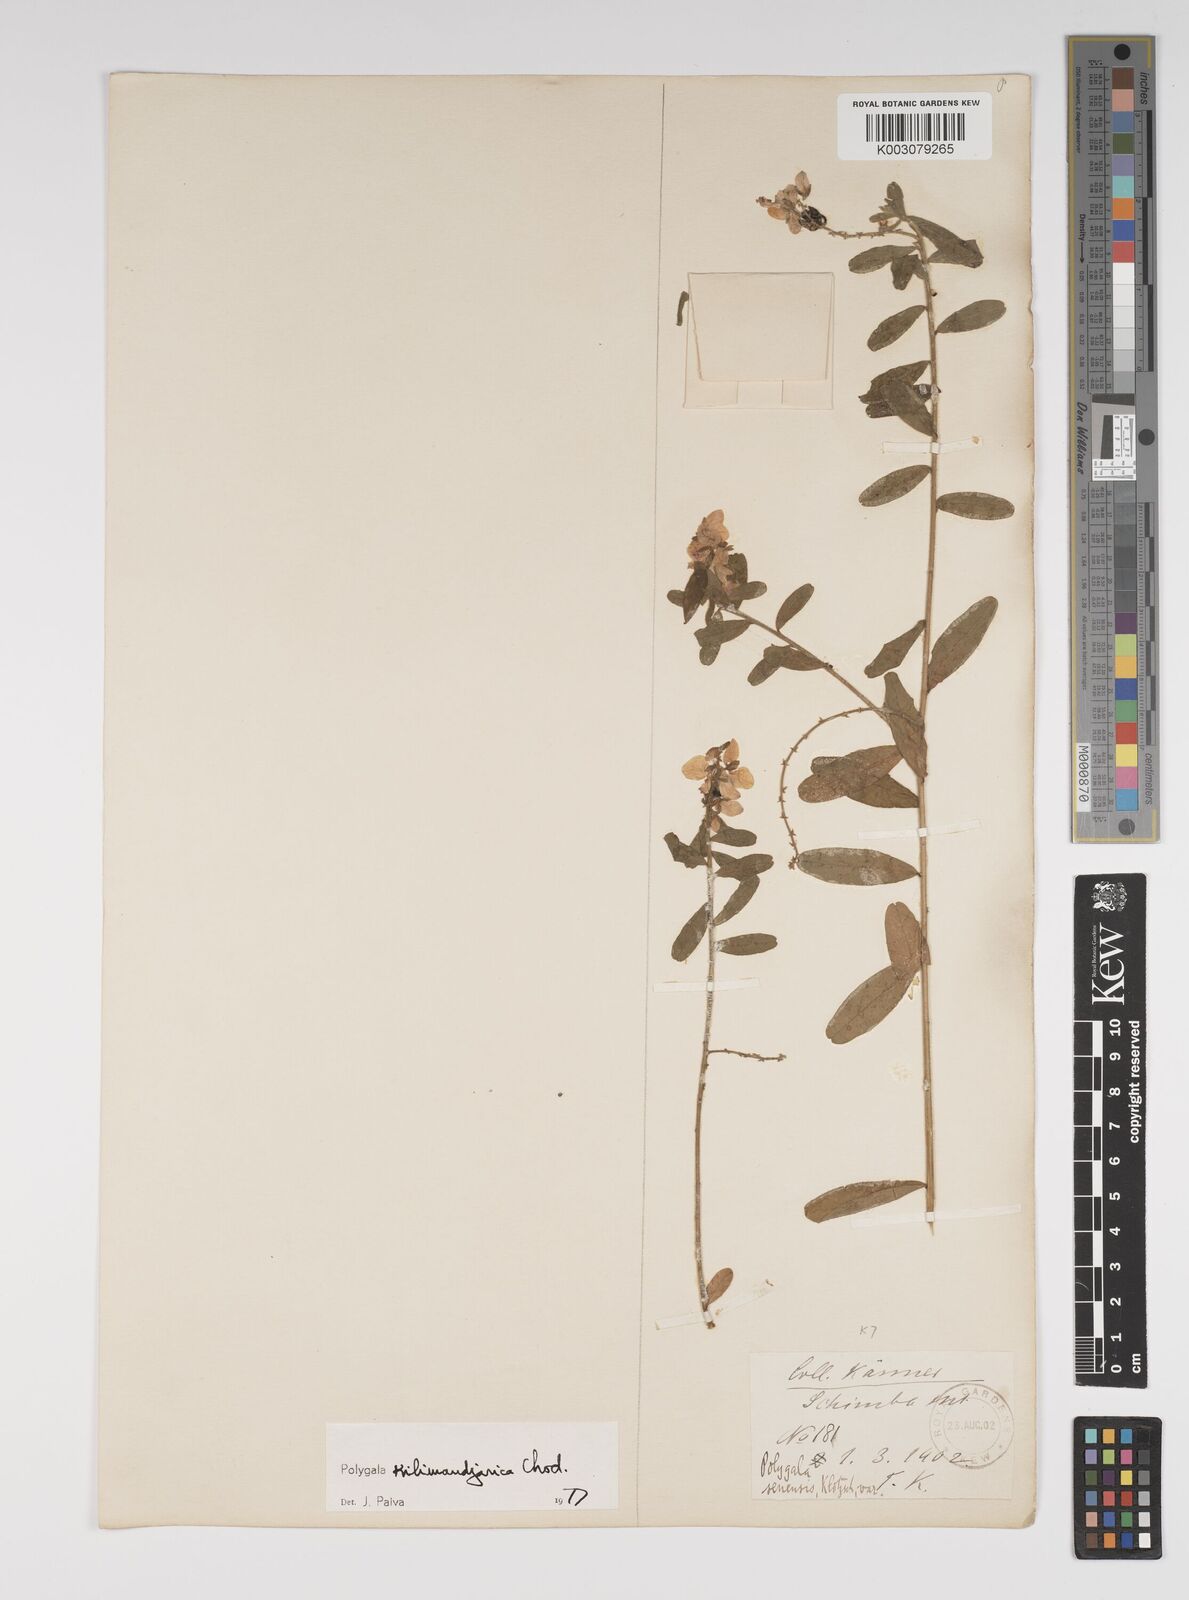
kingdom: Plantae
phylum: Tracheophyta
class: Magnoliopsida
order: Fabales
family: Polygalaceae
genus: Polygala
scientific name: Polygala kilimandjarica
